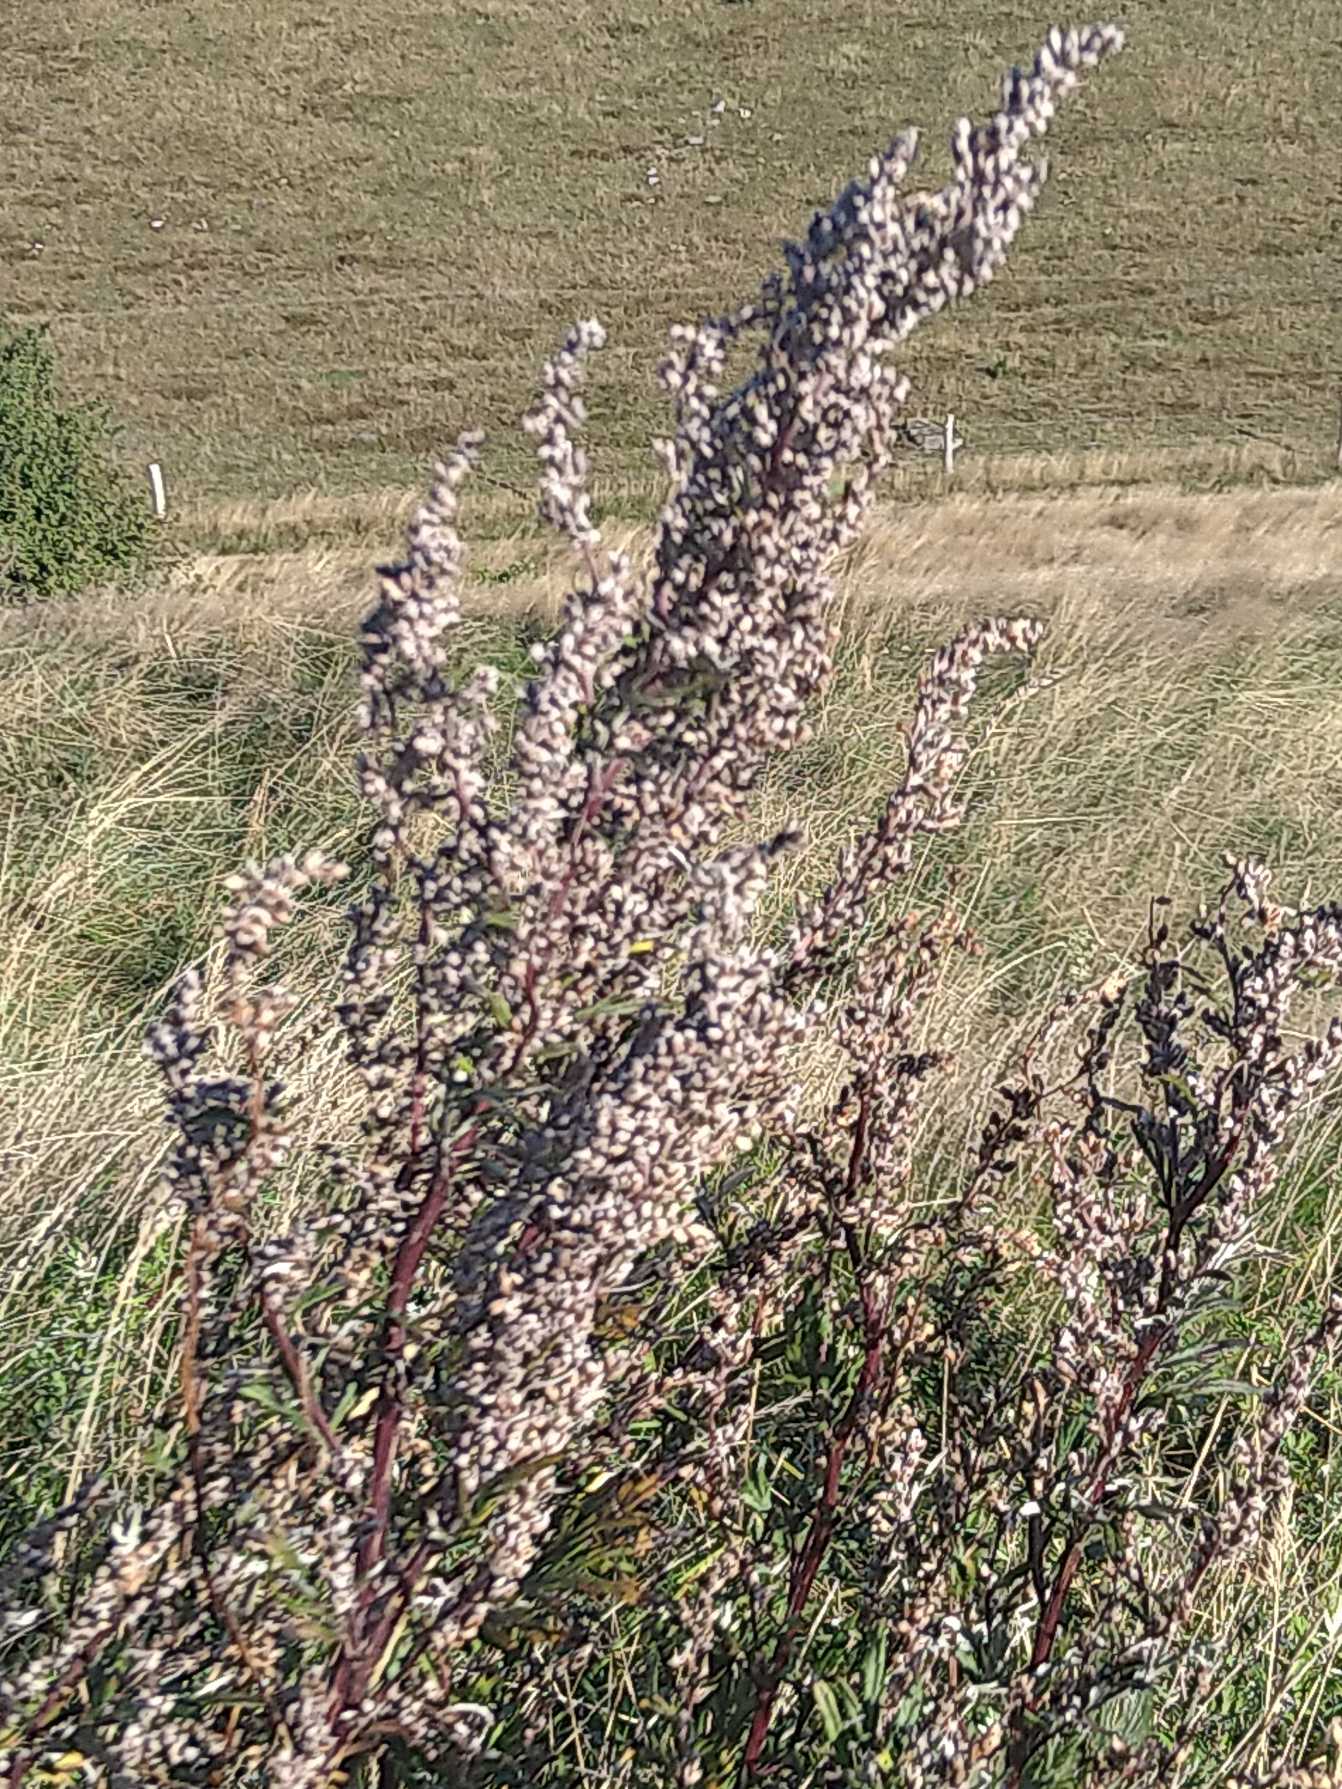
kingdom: Plantae
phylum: Tracheophyta
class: Magnoliopsida
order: Asterales
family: Asteraceae
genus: Artemisia
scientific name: Artemisia vulgaris
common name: Grå-bynke
